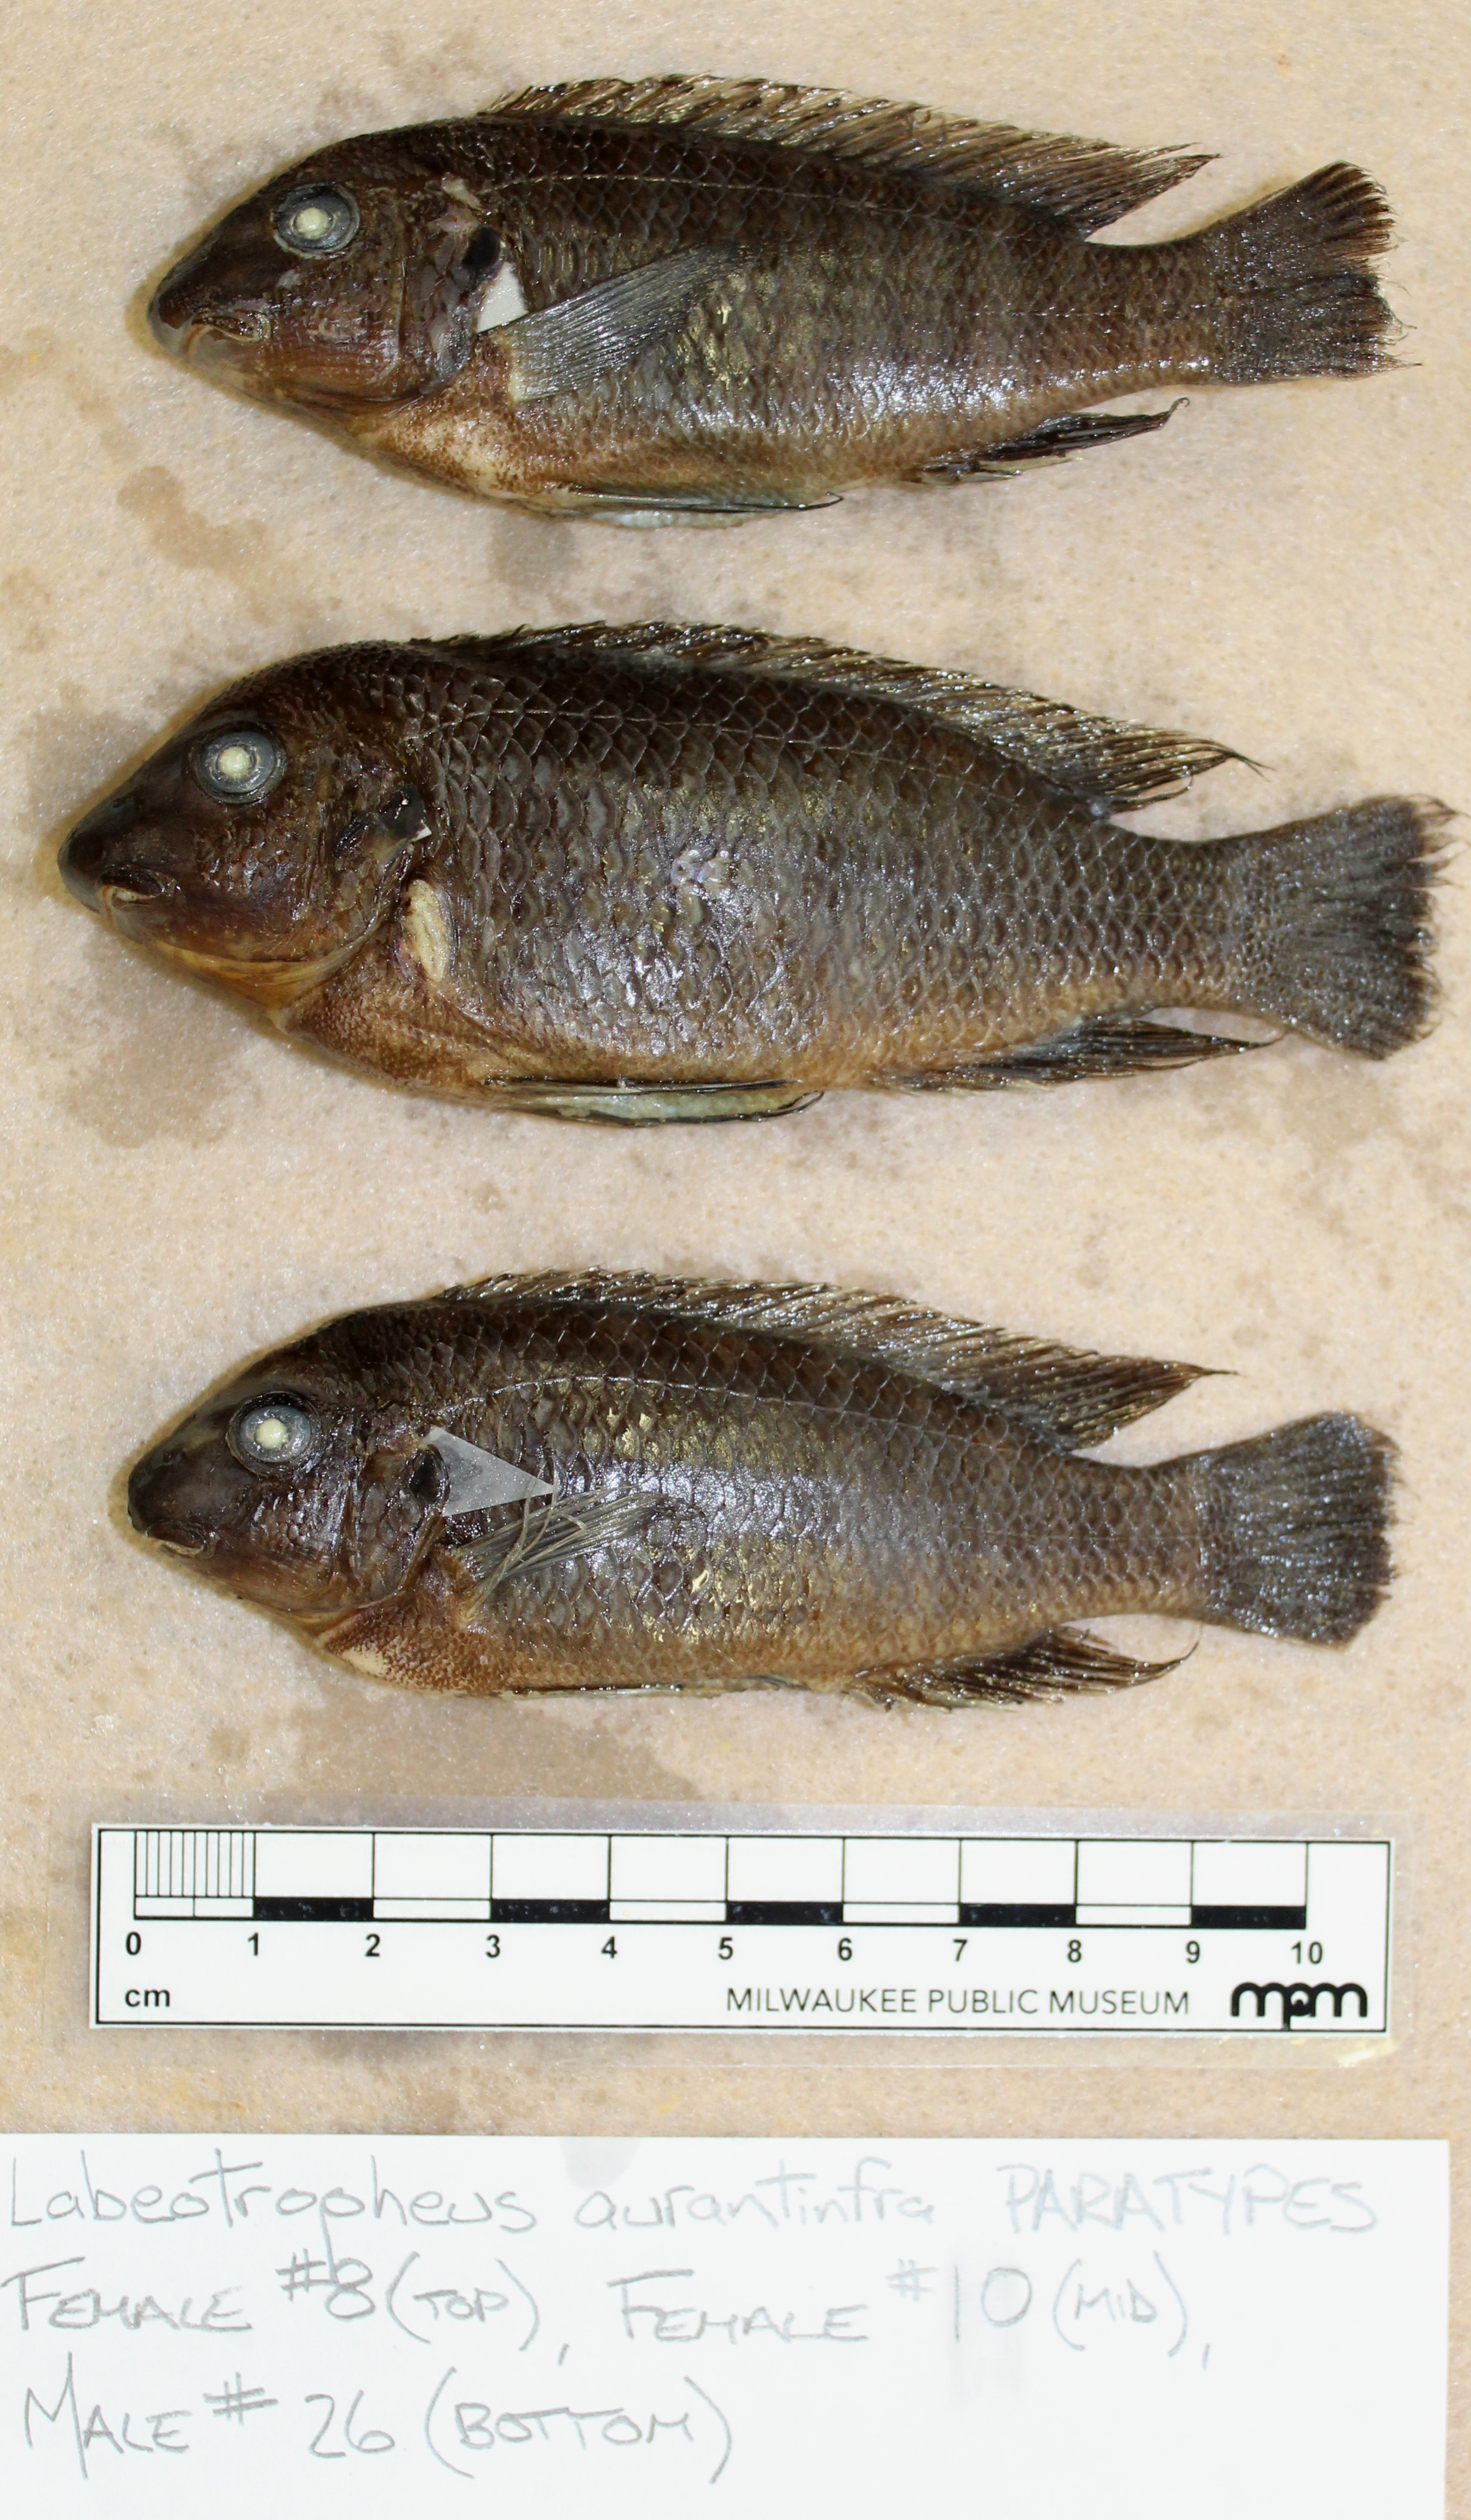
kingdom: Animalia
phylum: Chordata
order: Perciformes
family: Cichlidae
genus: Labeotropheus
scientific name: Labeotropheus
